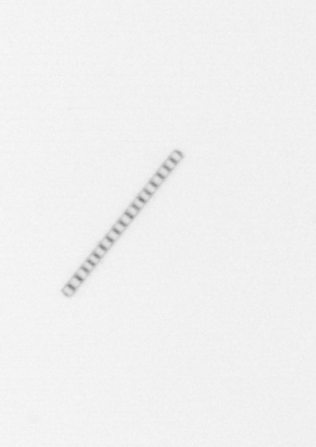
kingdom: Chromista
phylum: Ochrophyta
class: Bacillariophyceae
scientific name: Bacillariophyceae
